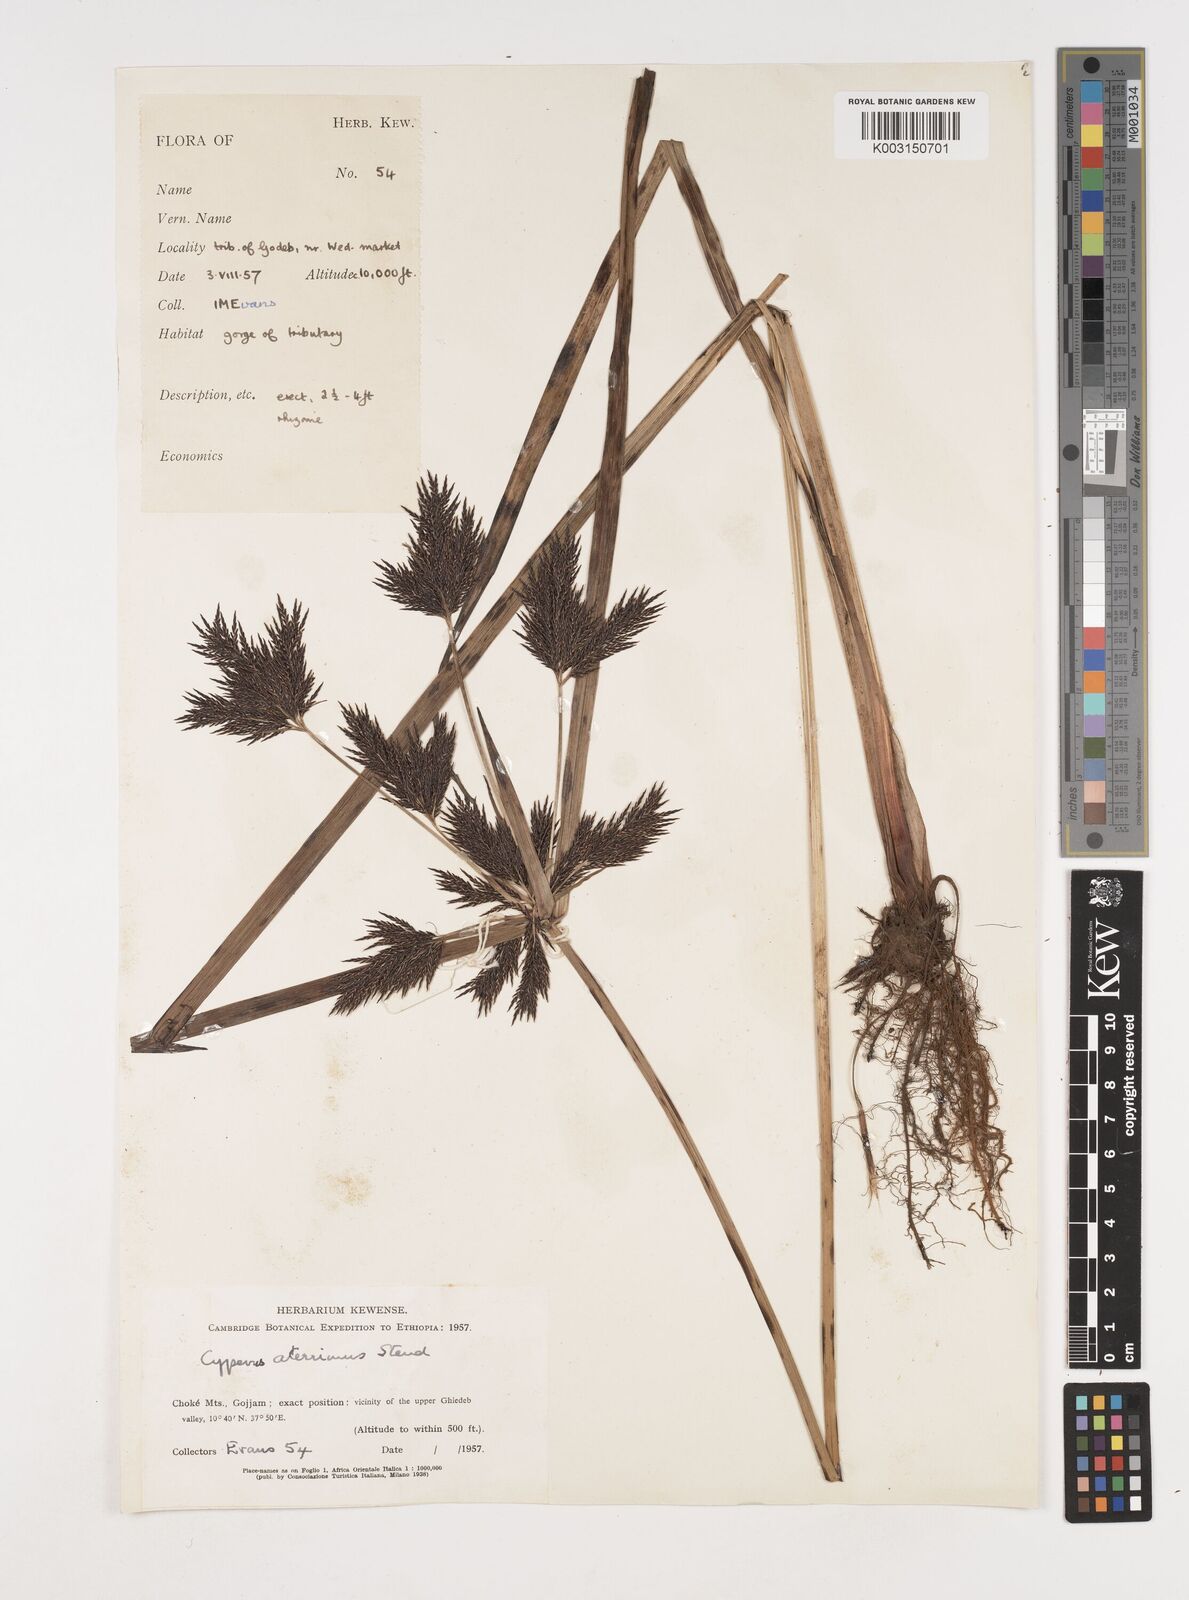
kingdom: Plantae
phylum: Tracheophyta
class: Liliopsida
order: Poales
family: Cyperaceae
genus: Cyperus
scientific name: Cyperus aterrimus
